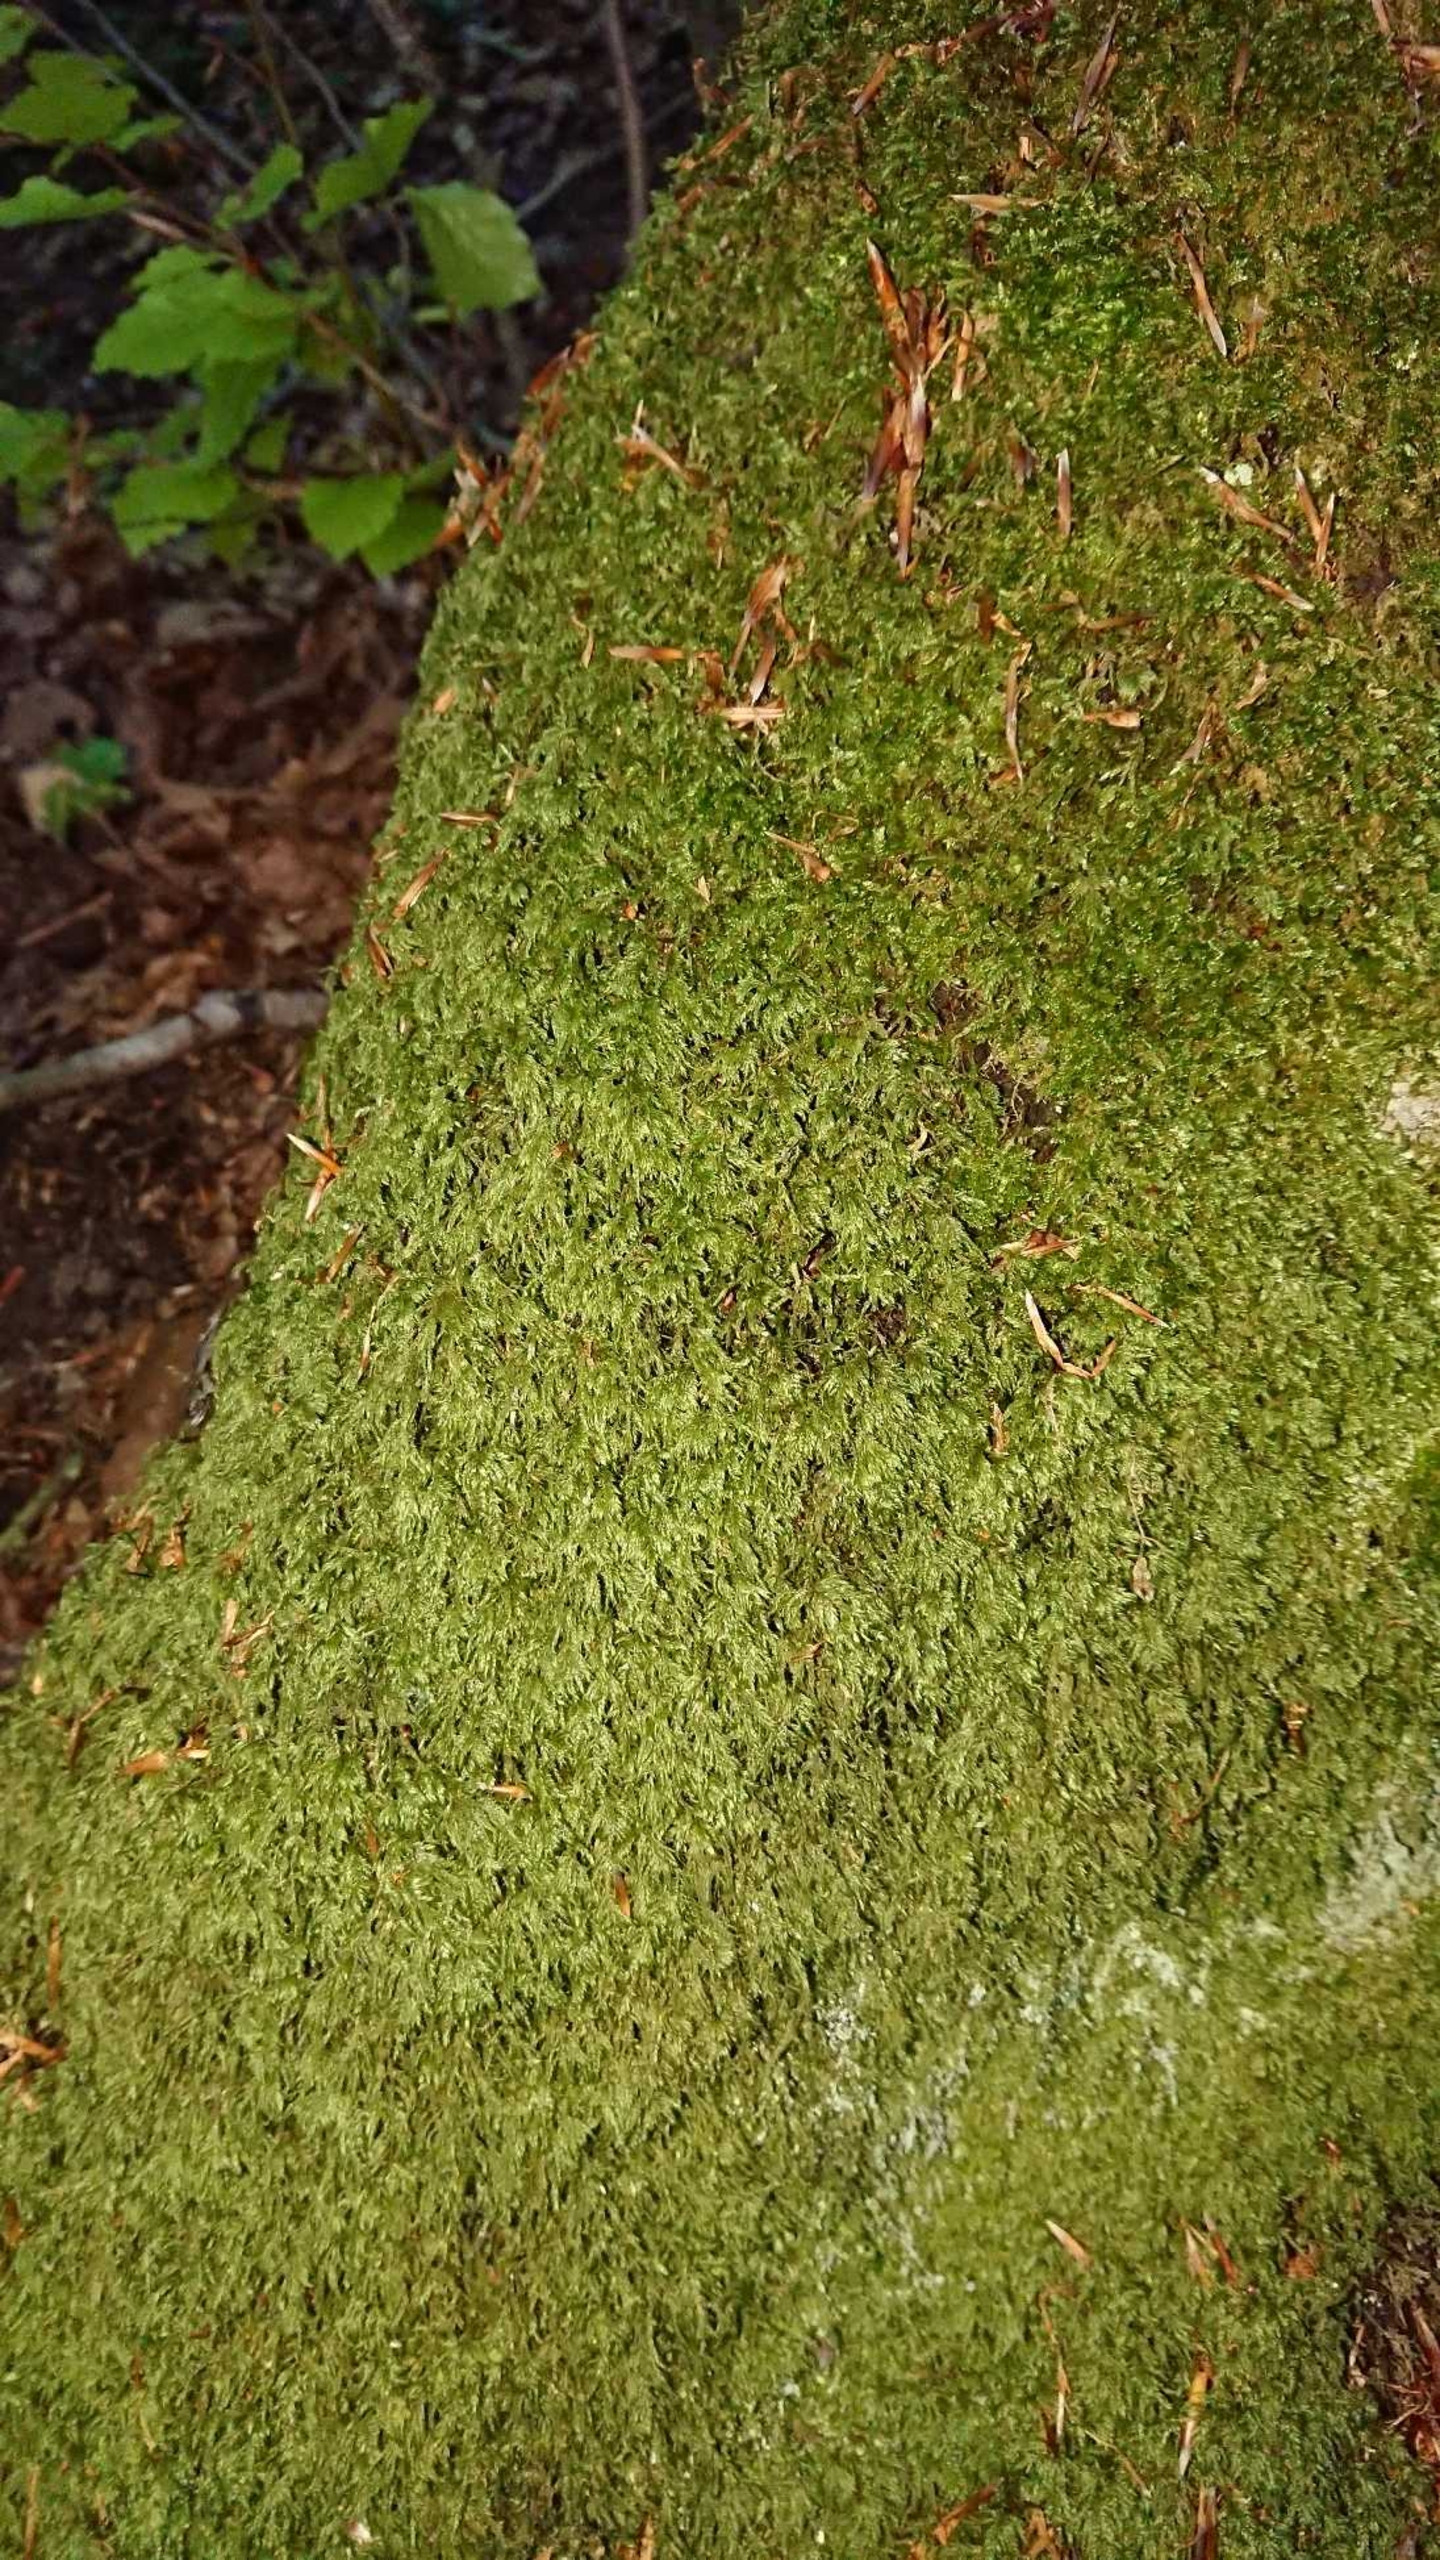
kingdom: Plantae
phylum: Bryophyta
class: Bryopsida
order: Hypnales
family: Lembophyllaceae
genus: Pseudisothecium
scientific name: Pseudisothecium myosuroides
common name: Slank stammemos
